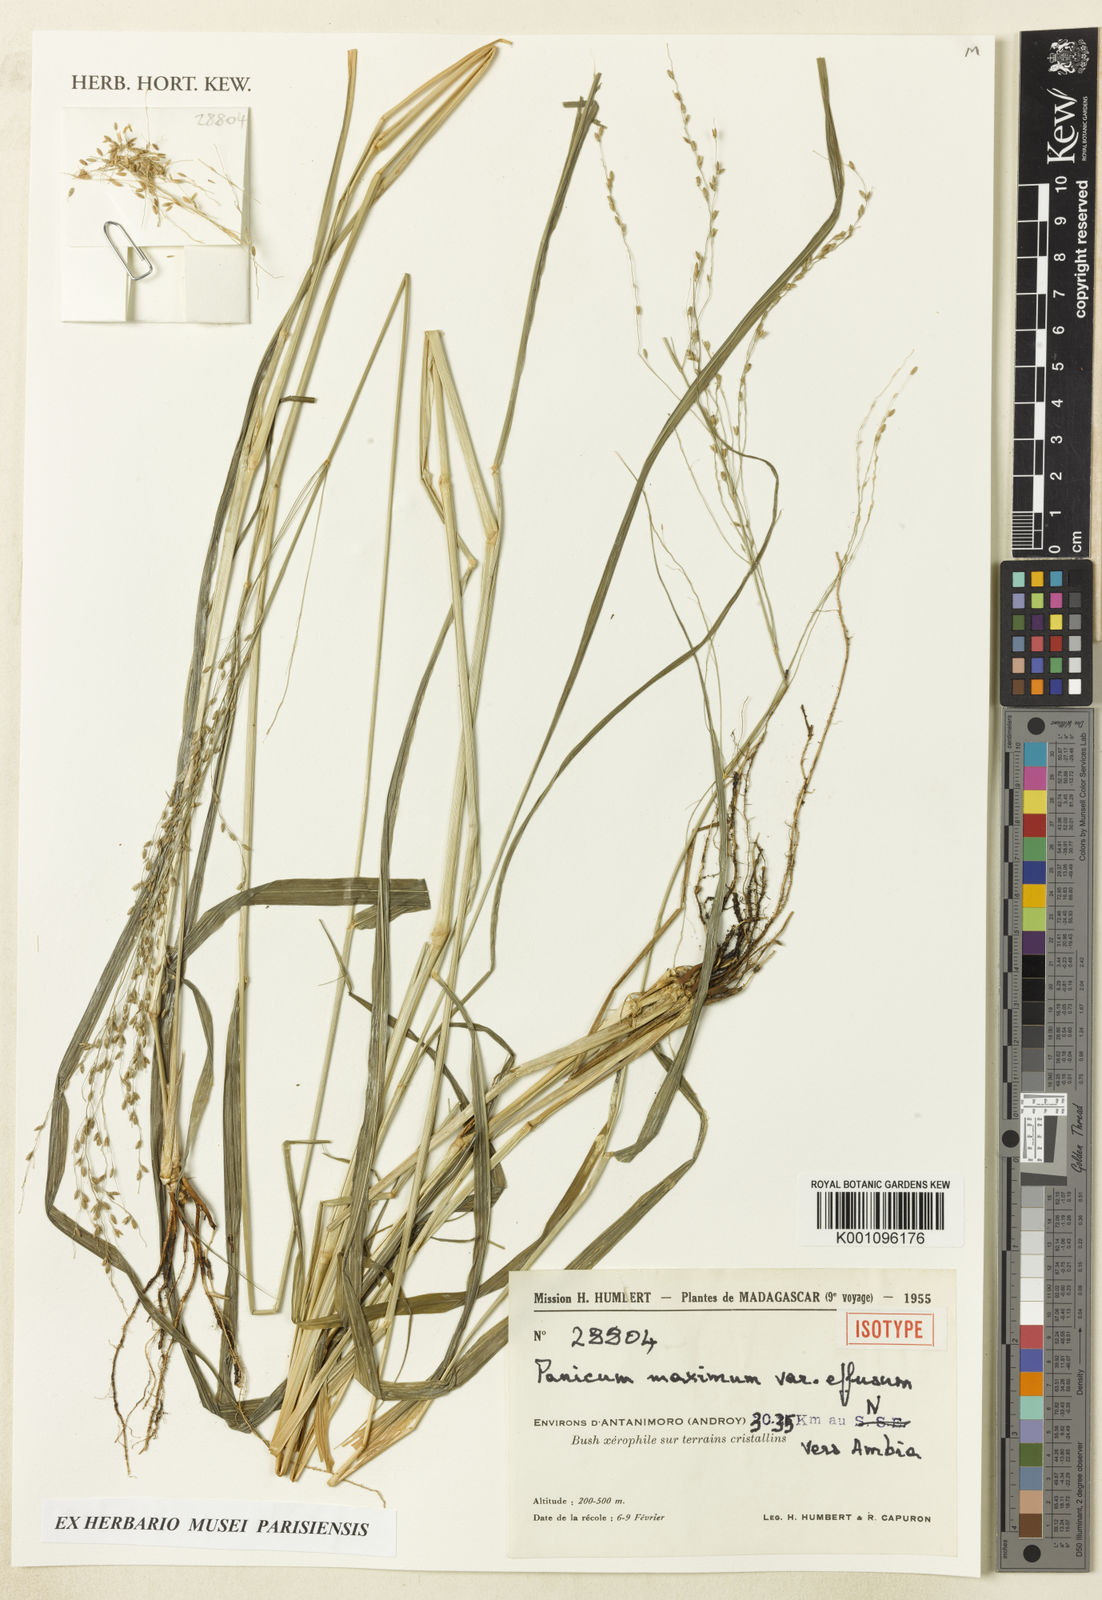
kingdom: Plantae
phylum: Tracheophyta
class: Liliopsida
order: Poales
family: Poaceae
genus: Megathyrsus
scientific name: Megathyrsus maximus
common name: Guineagrass
